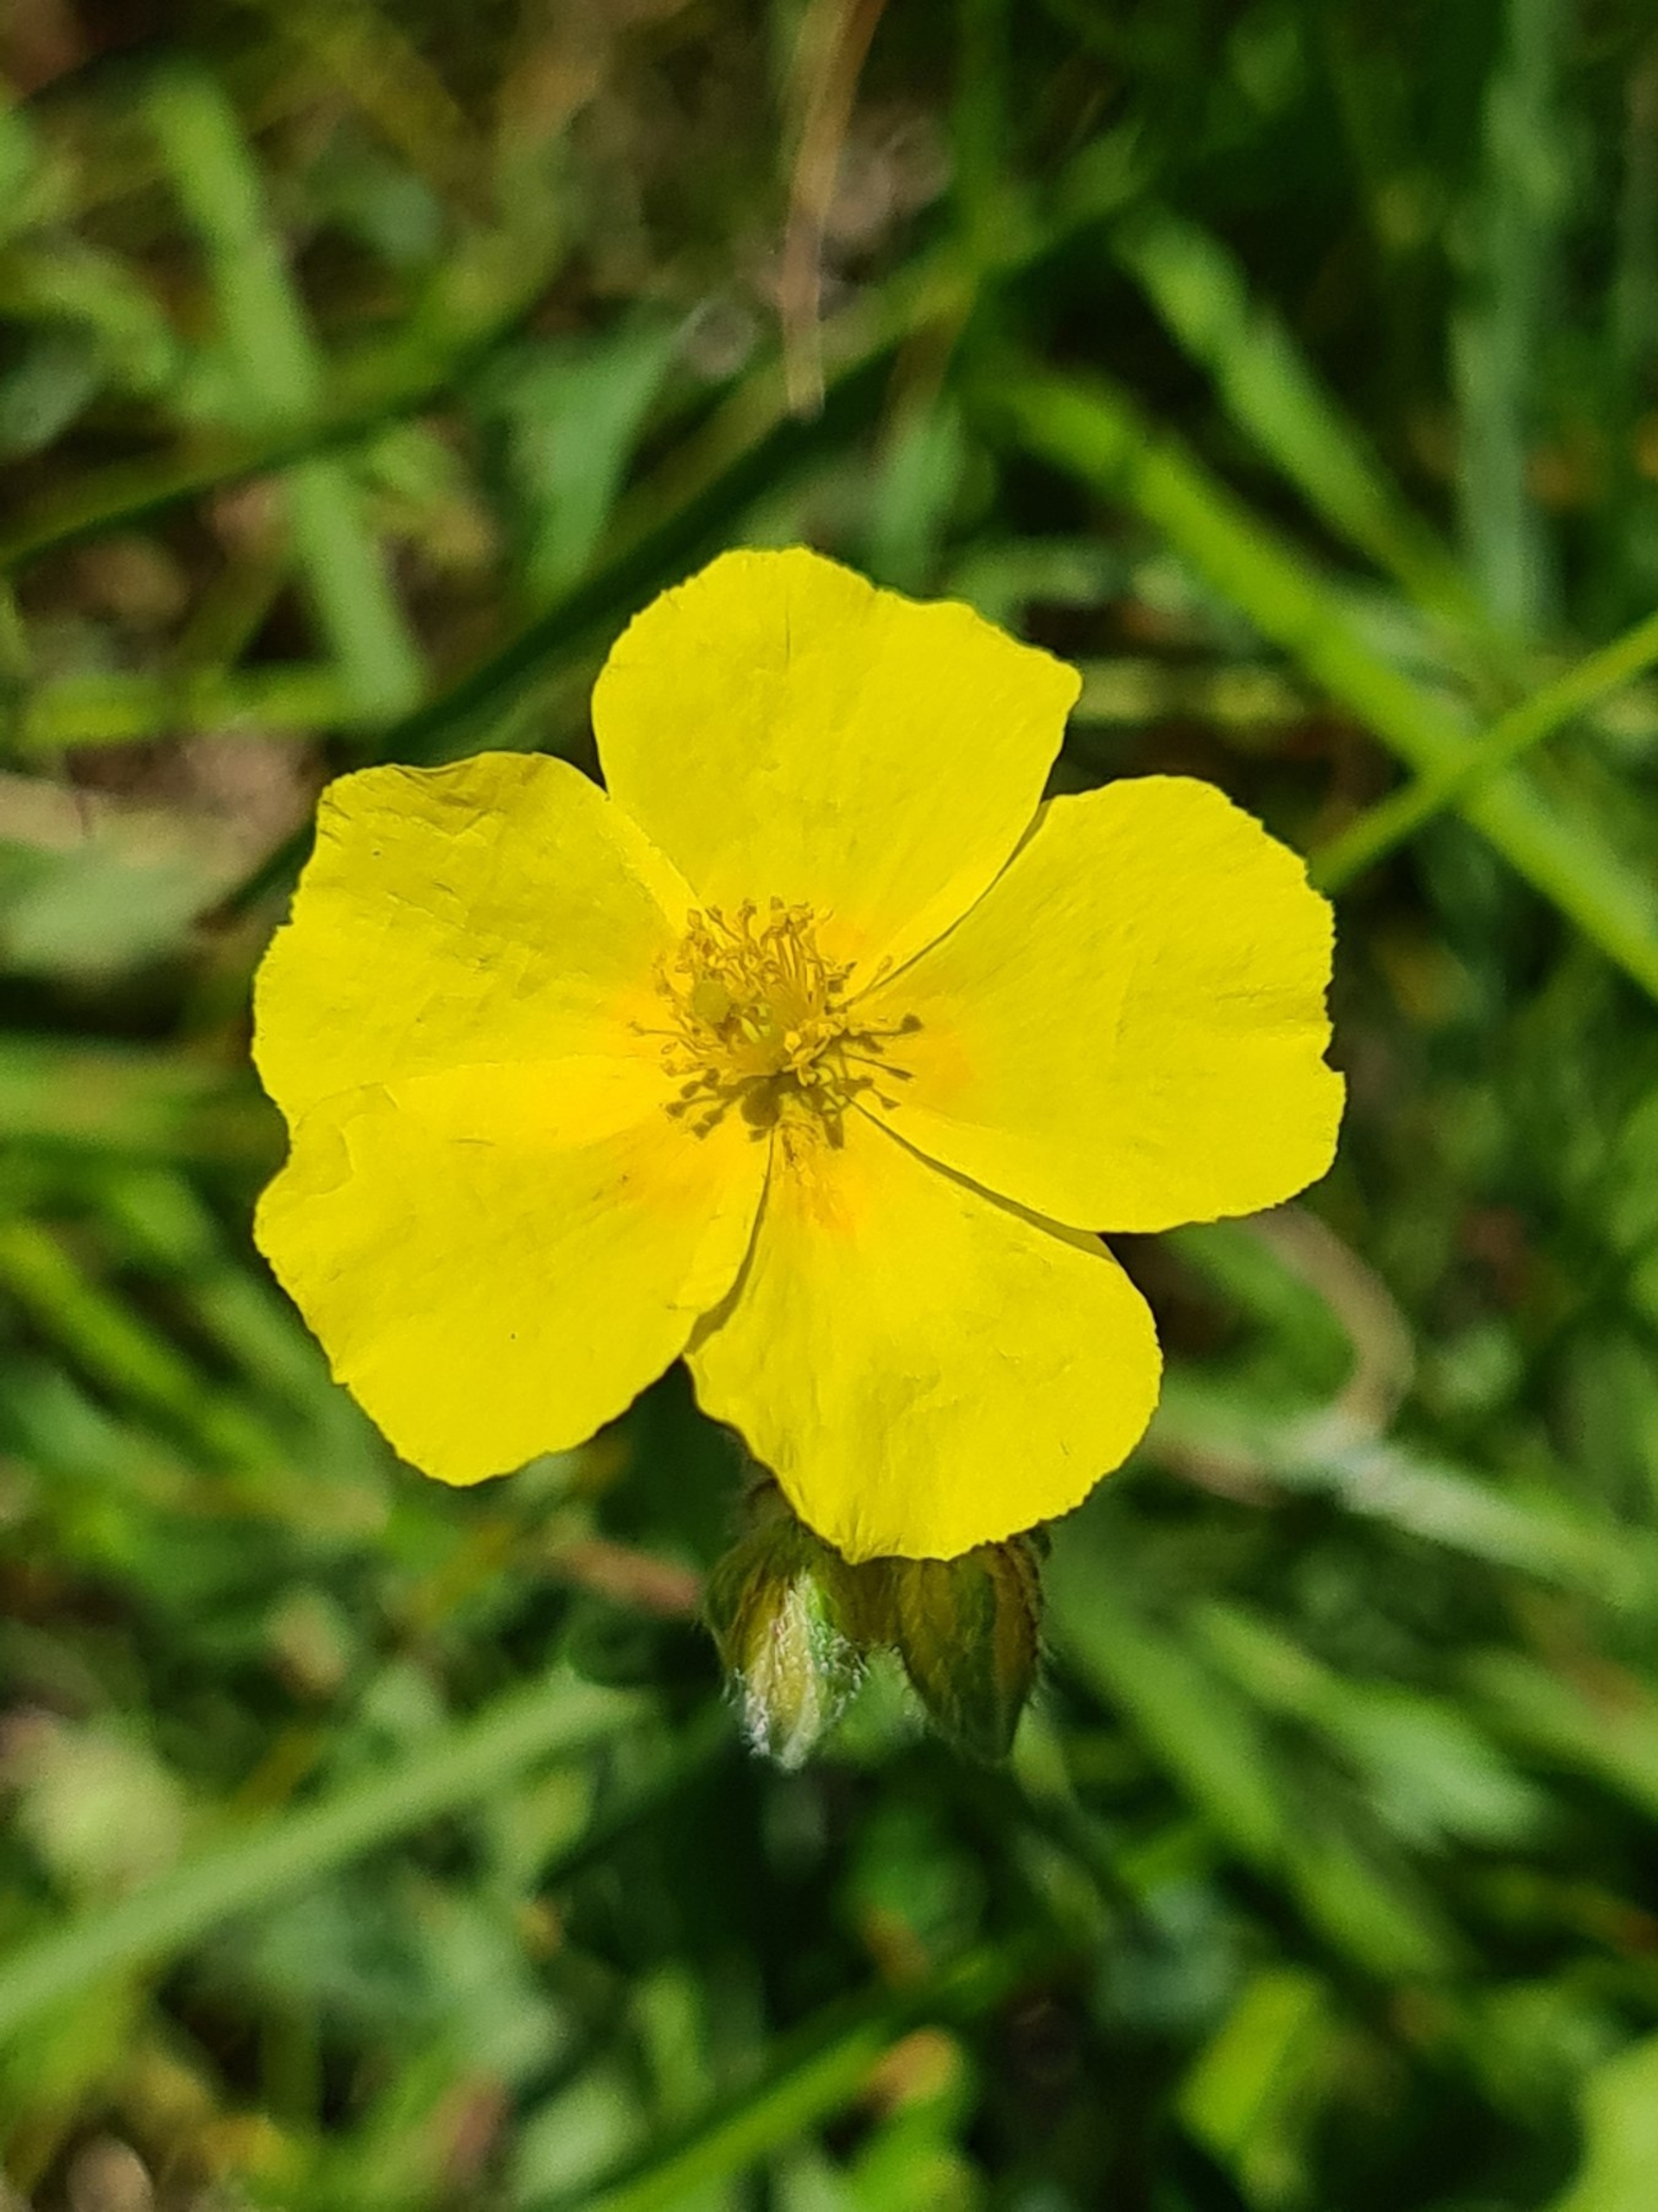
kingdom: Plantae
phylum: Tracheophyta
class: Magnoliopsida
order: Malvales
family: Cistaceae
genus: Helianthemum
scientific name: Helianthemum nummularium
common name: Bakke-soløje
